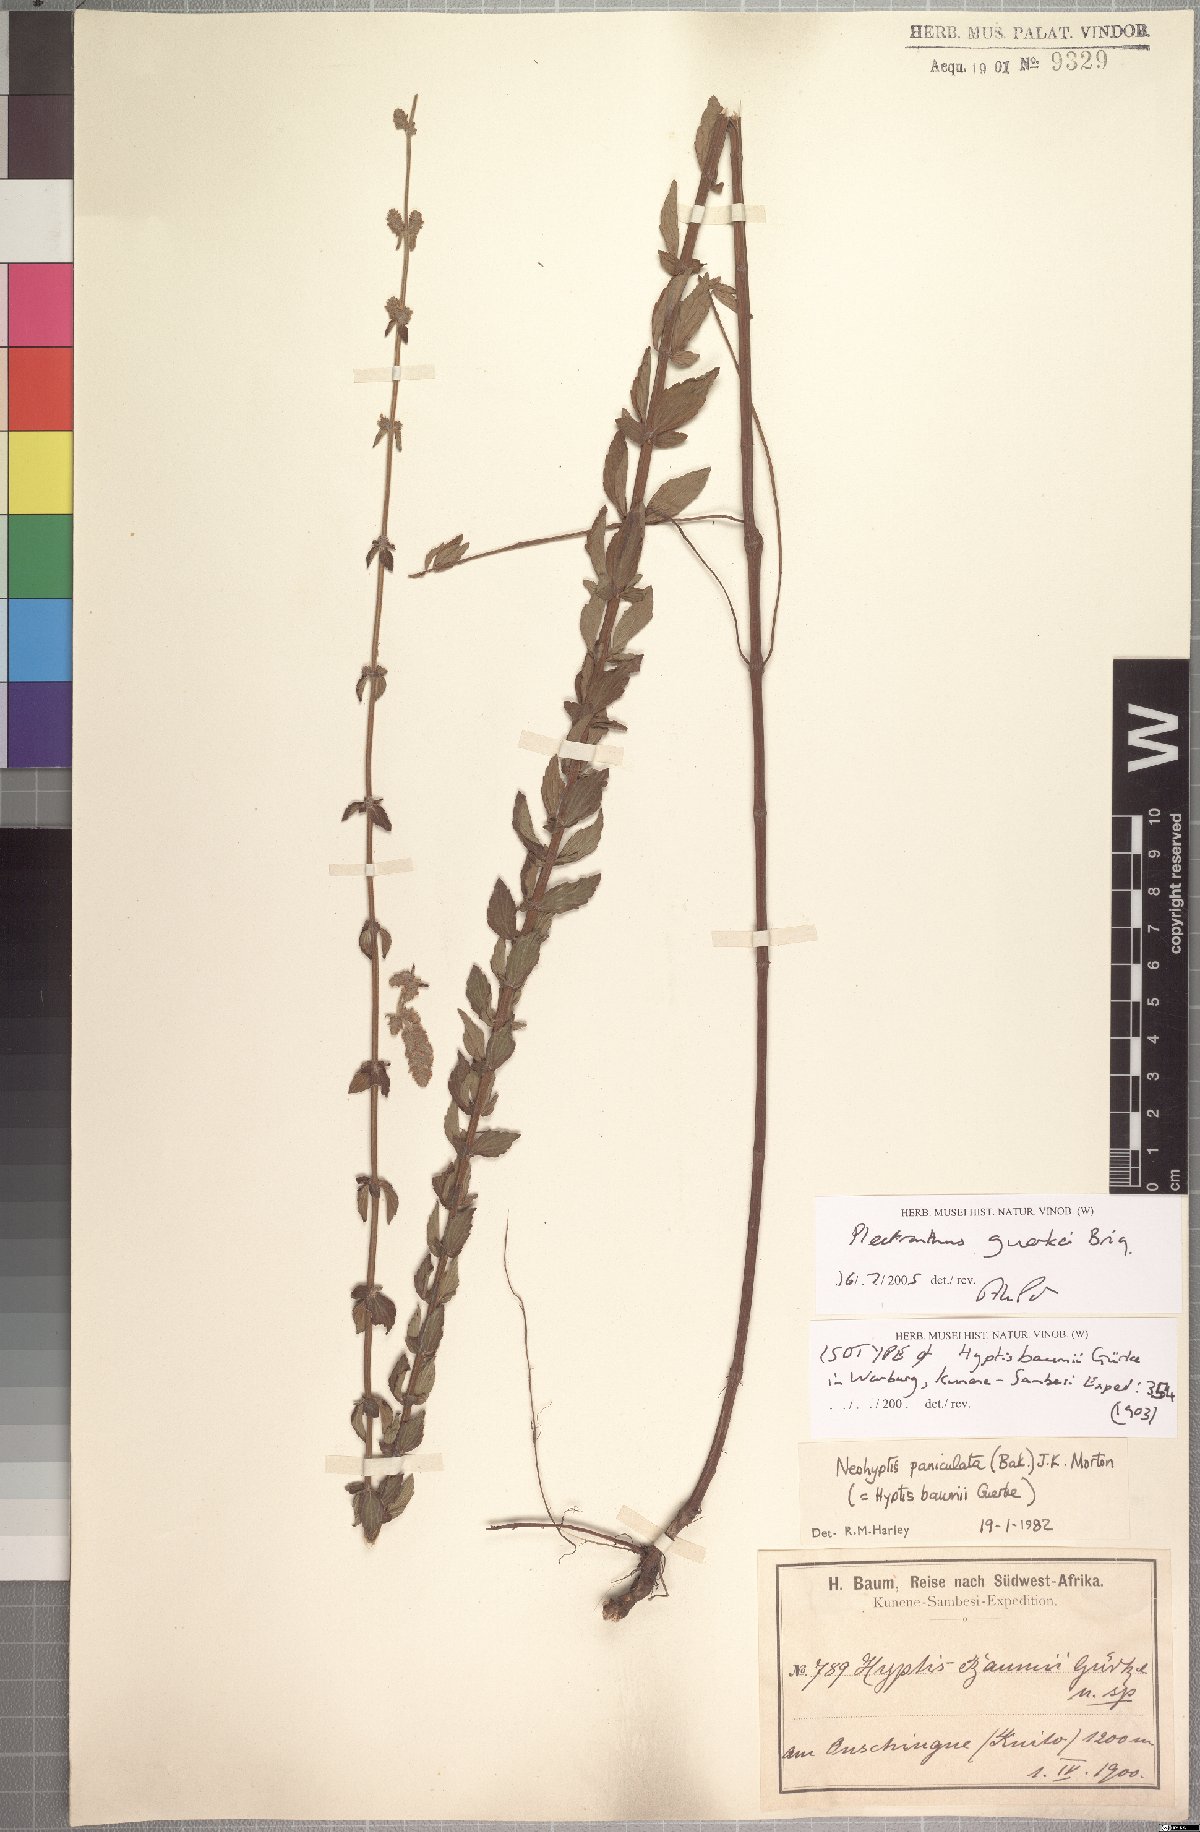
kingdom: Plantae
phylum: Tracheophyta
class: Magnoliopsida
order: Lamiales
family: Lamiaceae
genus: Coleus
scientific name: Coleus guerkei
